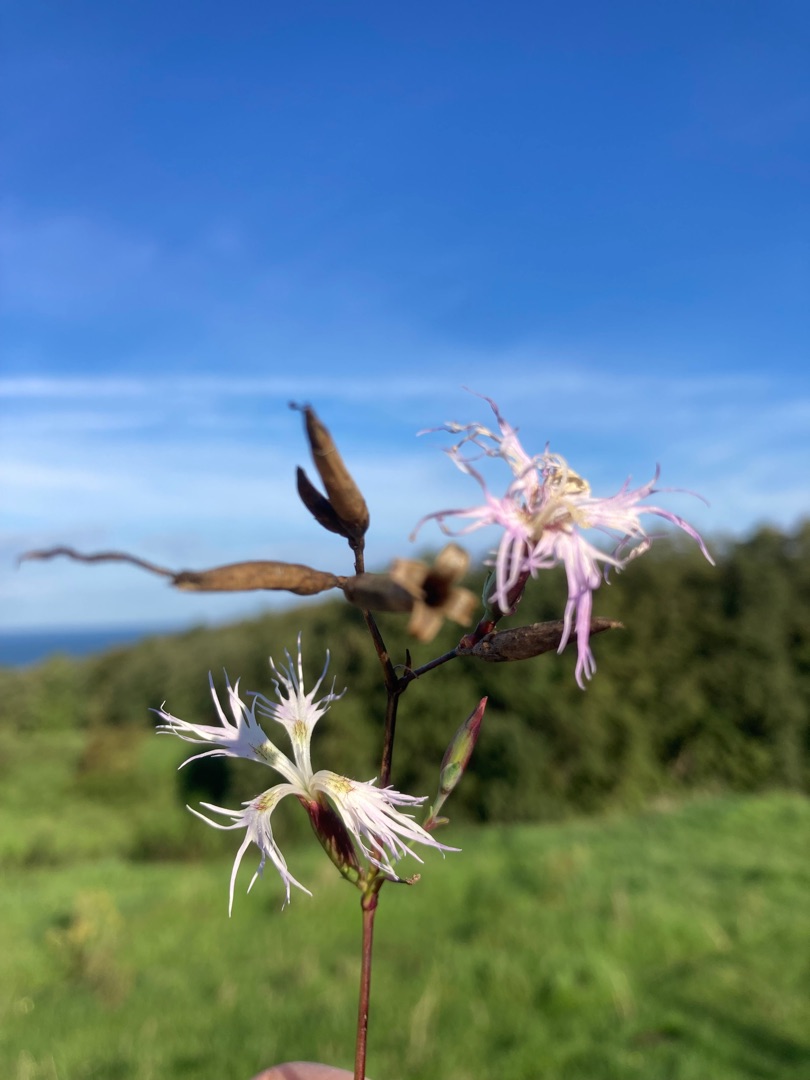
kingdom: Plantae
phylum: Tracheophyta
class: Magnoliopsida
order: Caryophyllales
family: Caryophyllaceae
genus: Dianthus
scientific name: Dianthus superbus
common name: Strand-nellike
